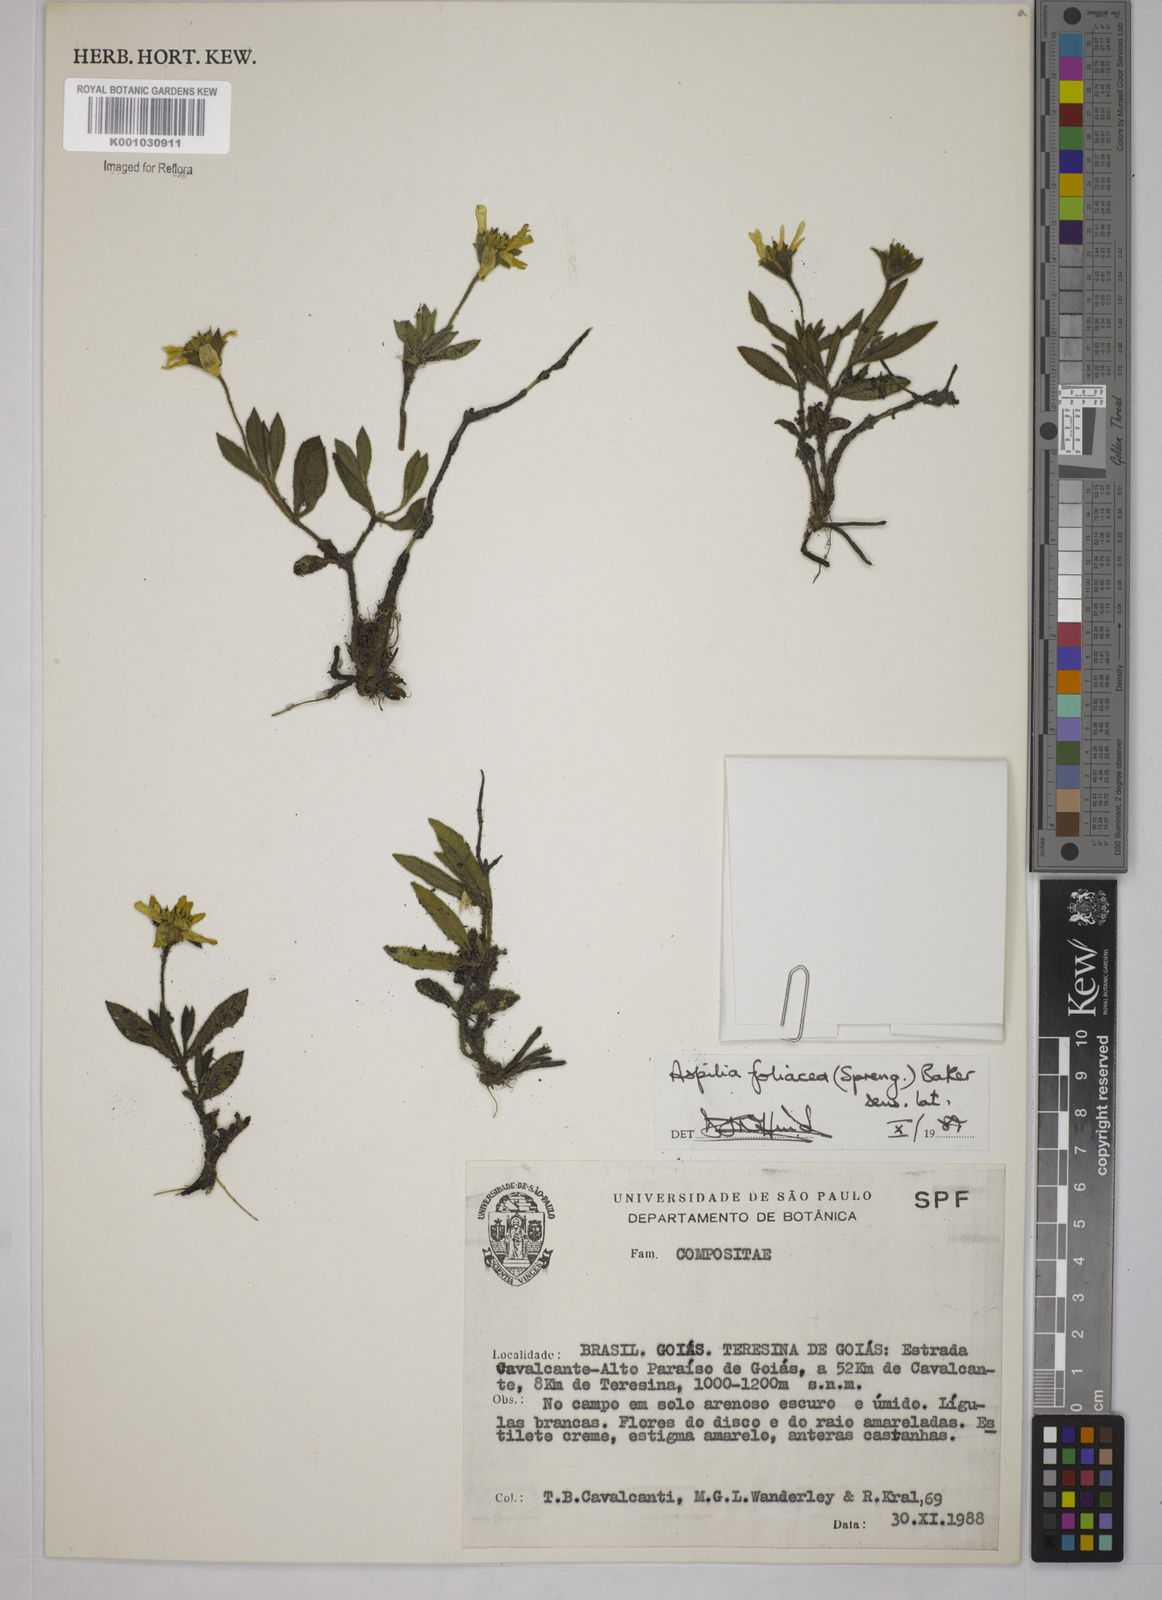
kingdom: Plantae
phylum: Tracheophyta
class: Magnoliopsida
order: Asterales
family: Asteraceae
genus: Wedelia
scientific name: Wedelia foliacea
